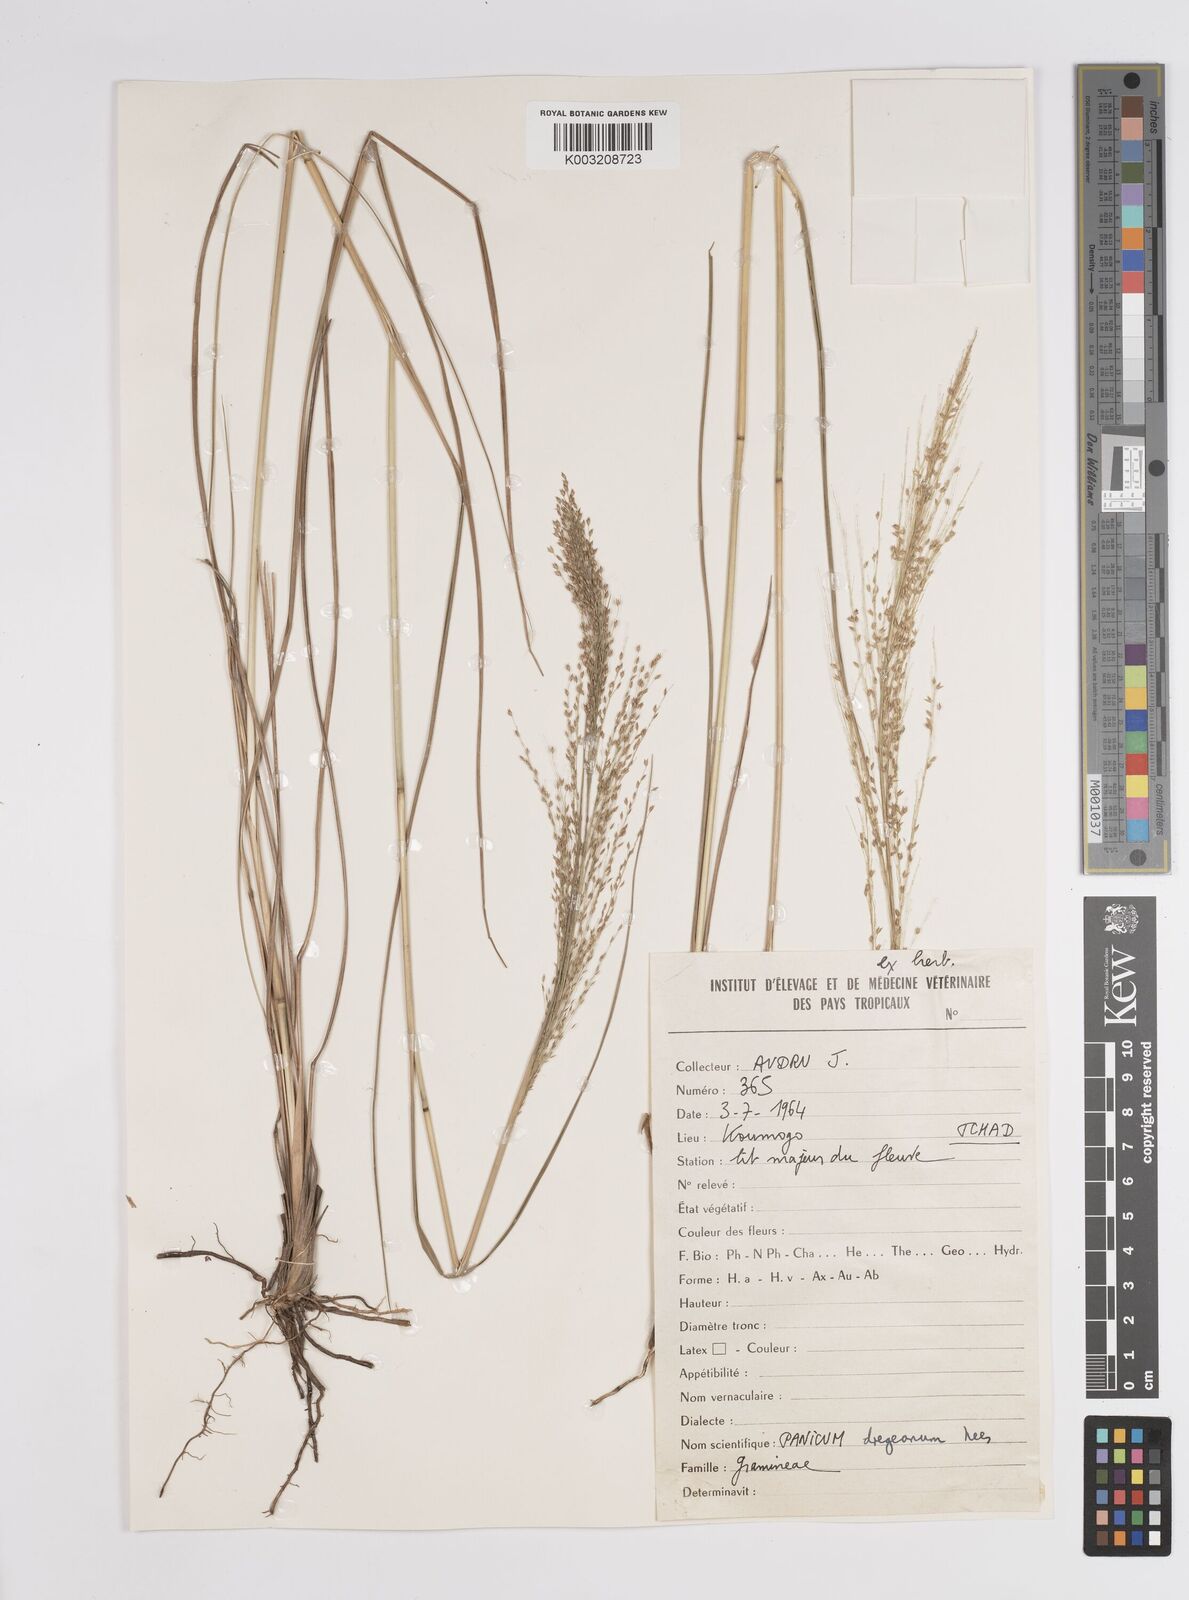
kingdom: Plantae
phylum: Tracheophyta
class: Liliopsida
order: Poales
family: Poaceae
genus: Panicum
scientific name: Panicum dregeanum
